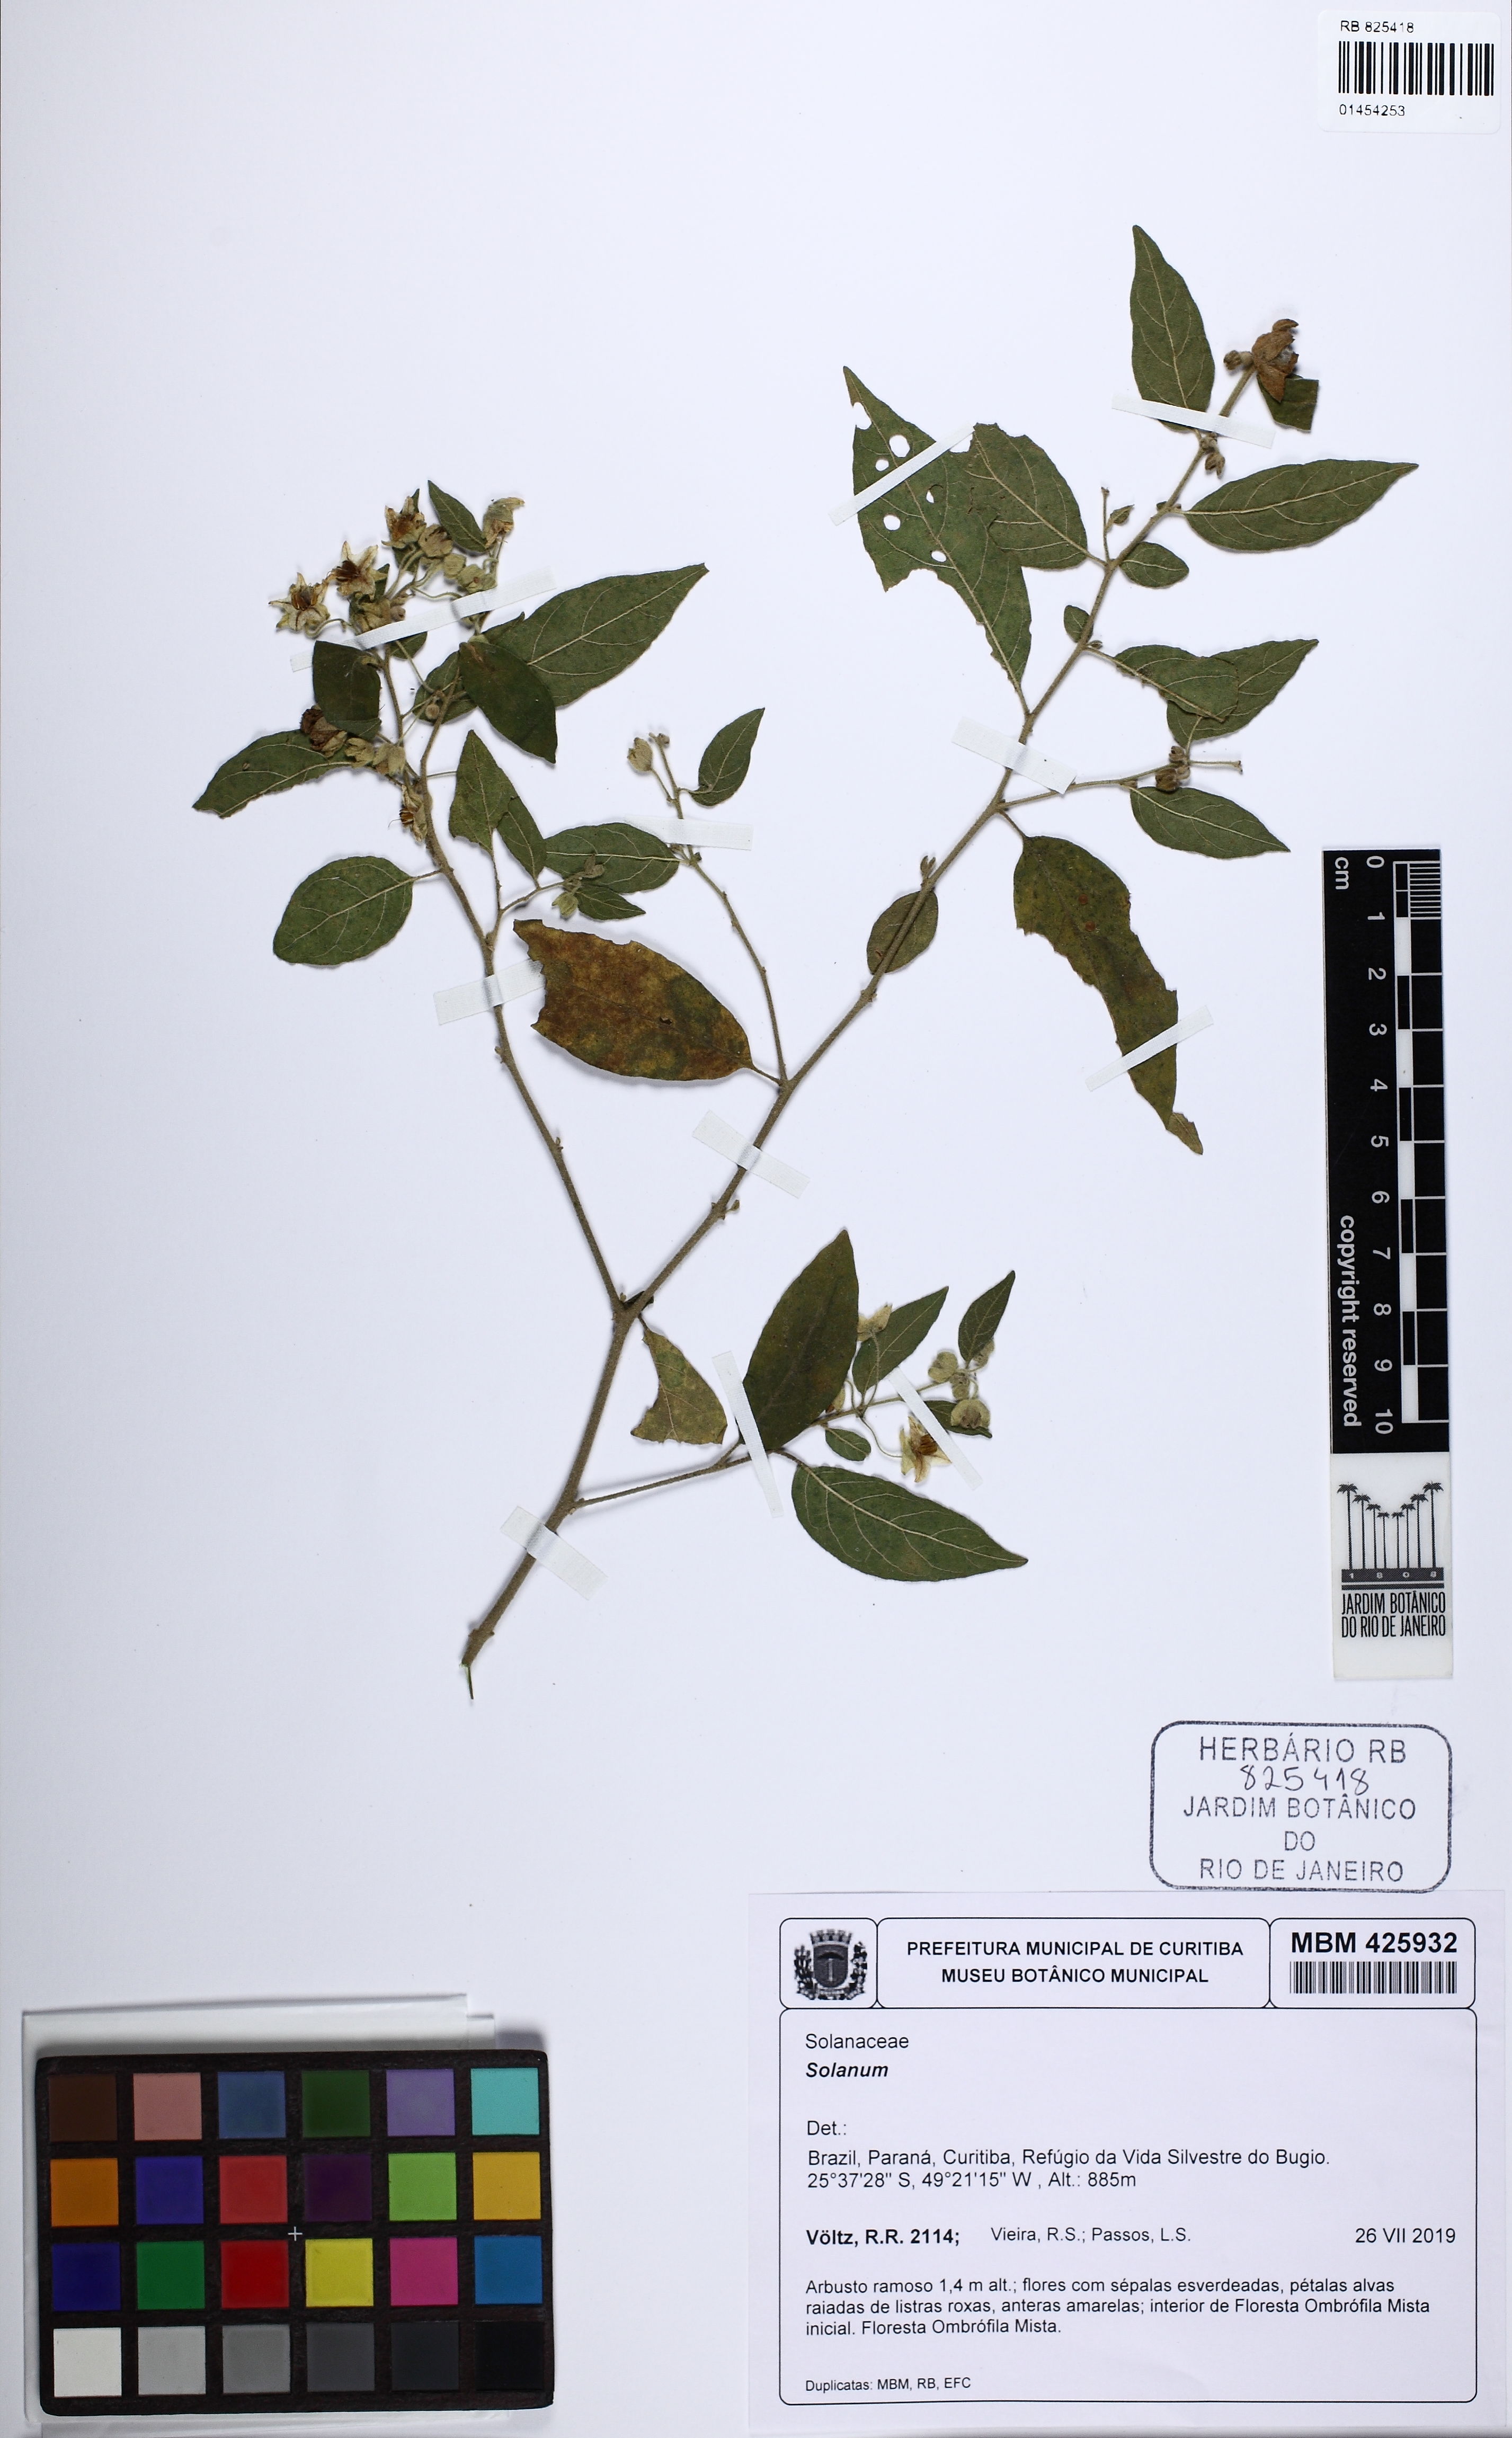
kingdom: Plantae
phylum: Tracheophyta
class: Magnoliopsida
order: Solanales
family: Solanaceae
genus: Solanum
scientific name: Solanum
